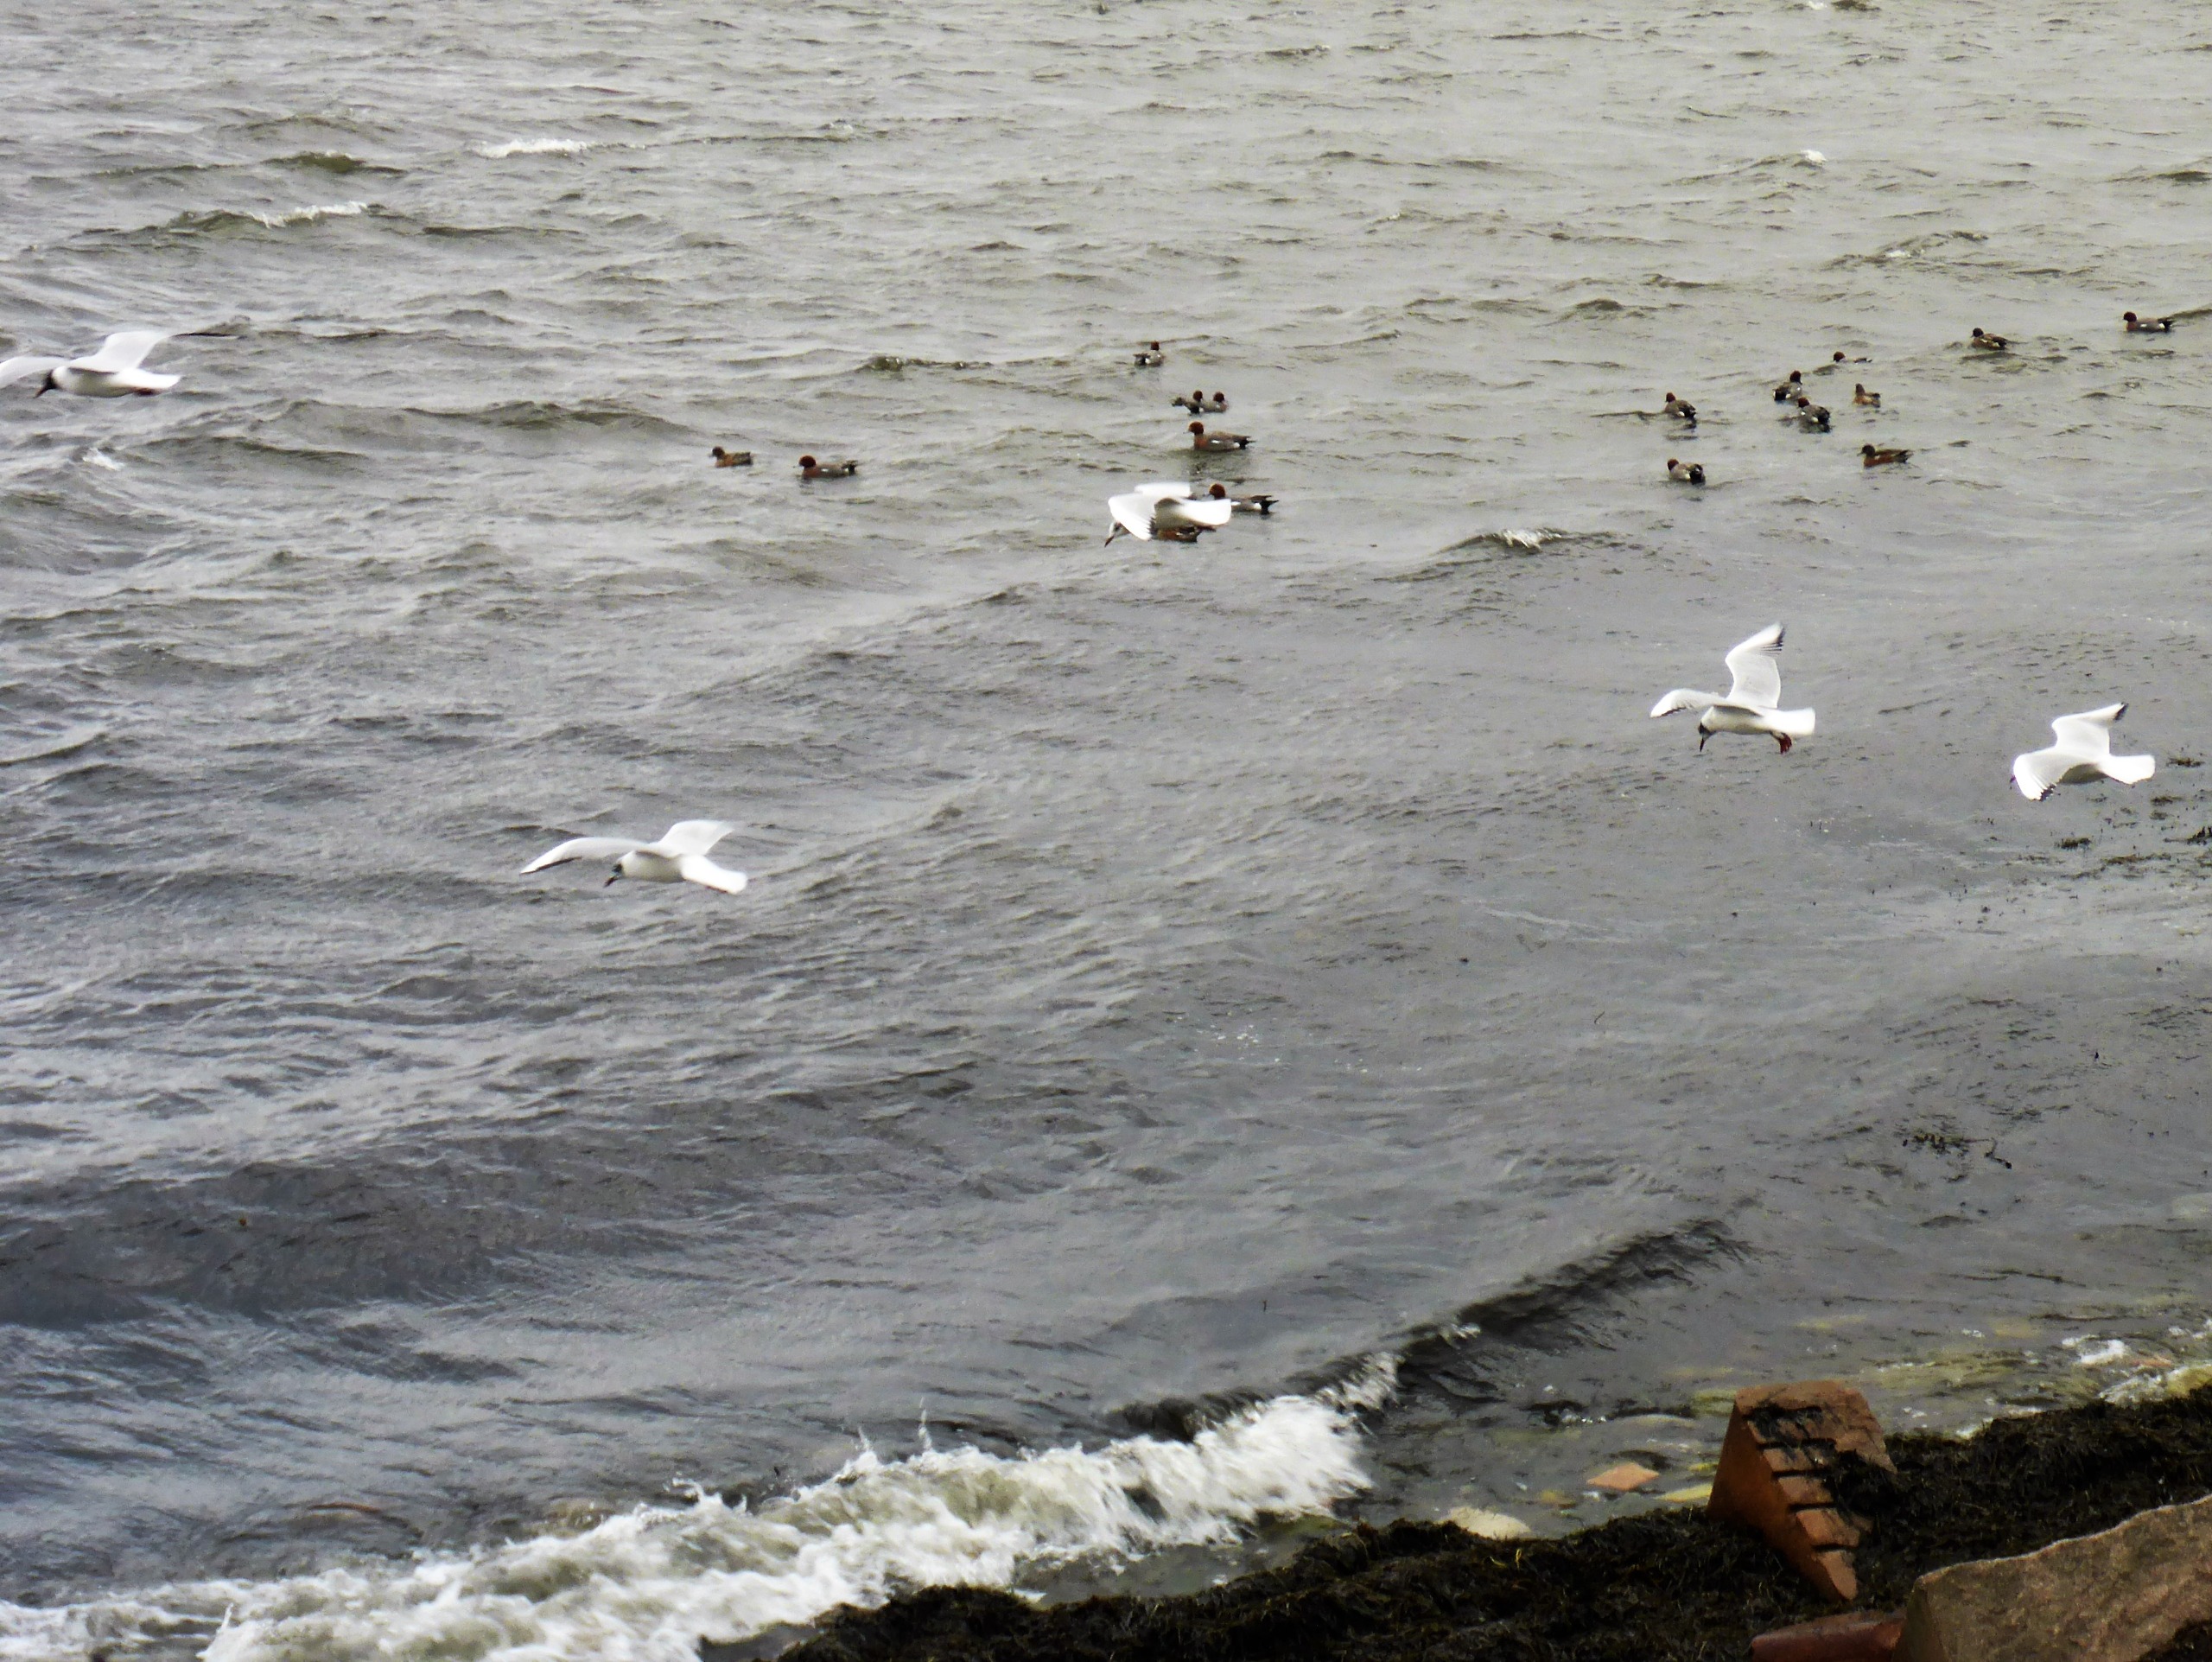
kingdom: Animalia
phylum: Chordata
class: Aves
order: Charadriiformes
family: Laridae
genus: Chroicocephalus
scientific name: Chroicocephalus ridibundus
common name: Hættemåge
